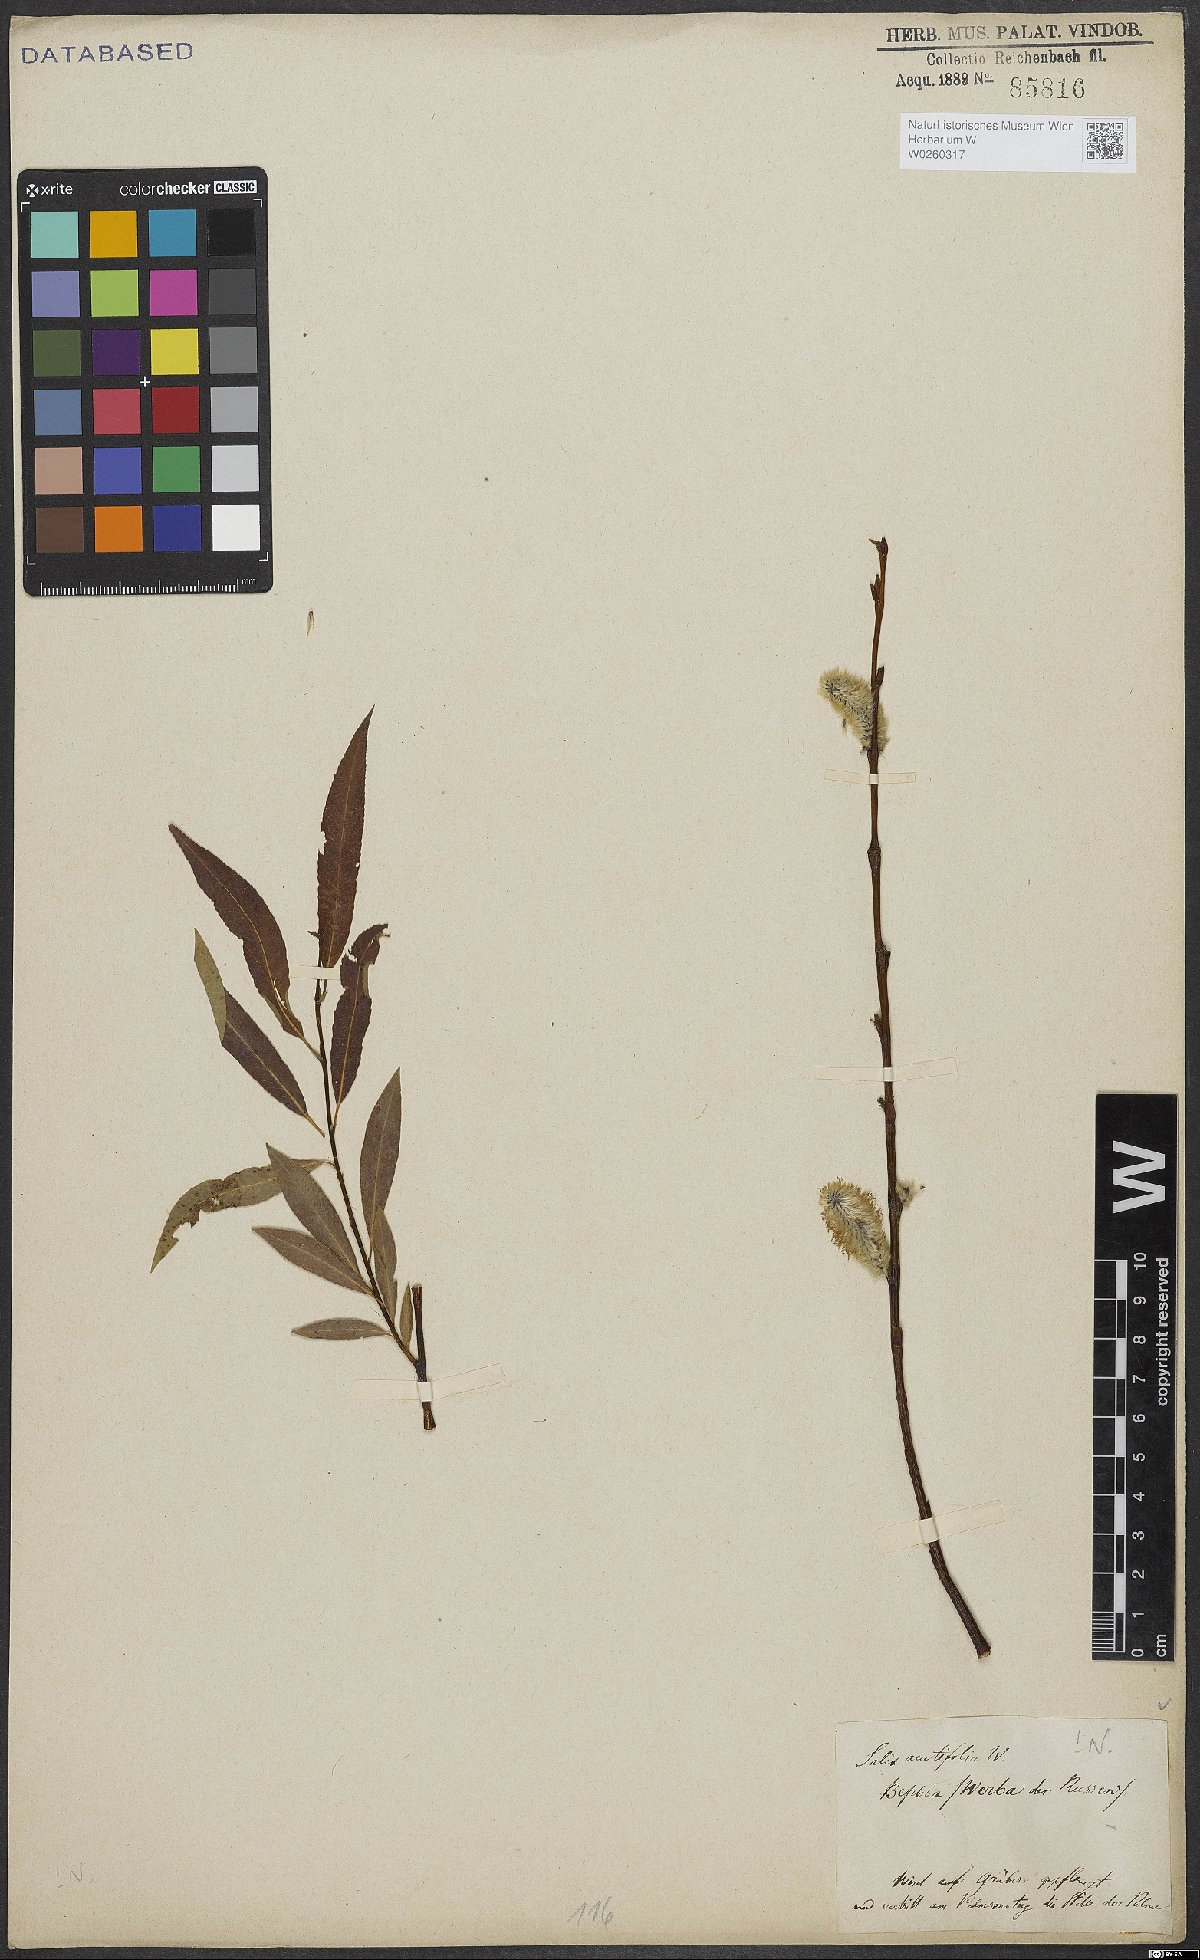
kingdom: Plantae
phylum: Tracheophyta
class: Magnoliopsida
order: Malpighiales
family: Salicaceae
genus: Salix
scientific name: Salix acutifolia
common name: Siberian violet-willow
